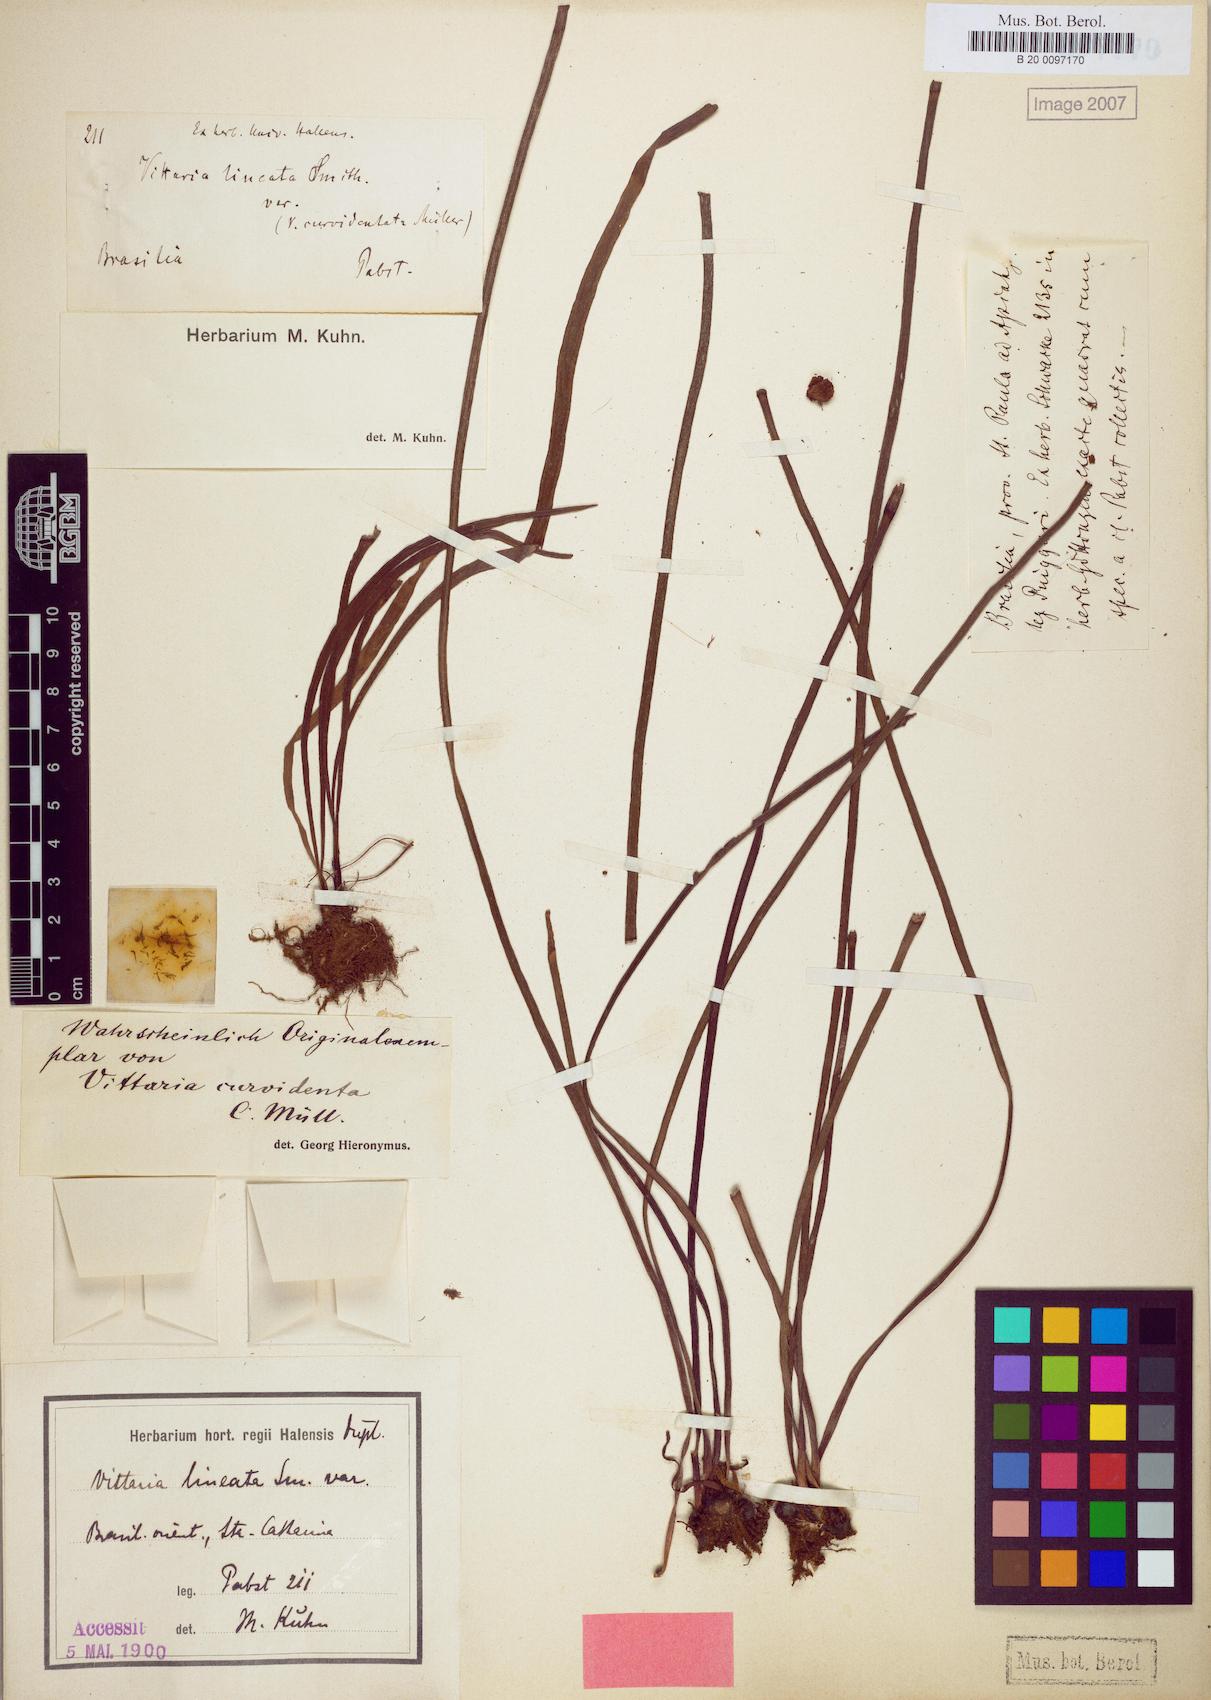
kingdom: Plantae
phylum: Tracheophyta
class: Polypodiopsida
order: Polypodiales
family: Pteridaceae
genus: Vittaria
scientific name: Vittaria curvidentata
